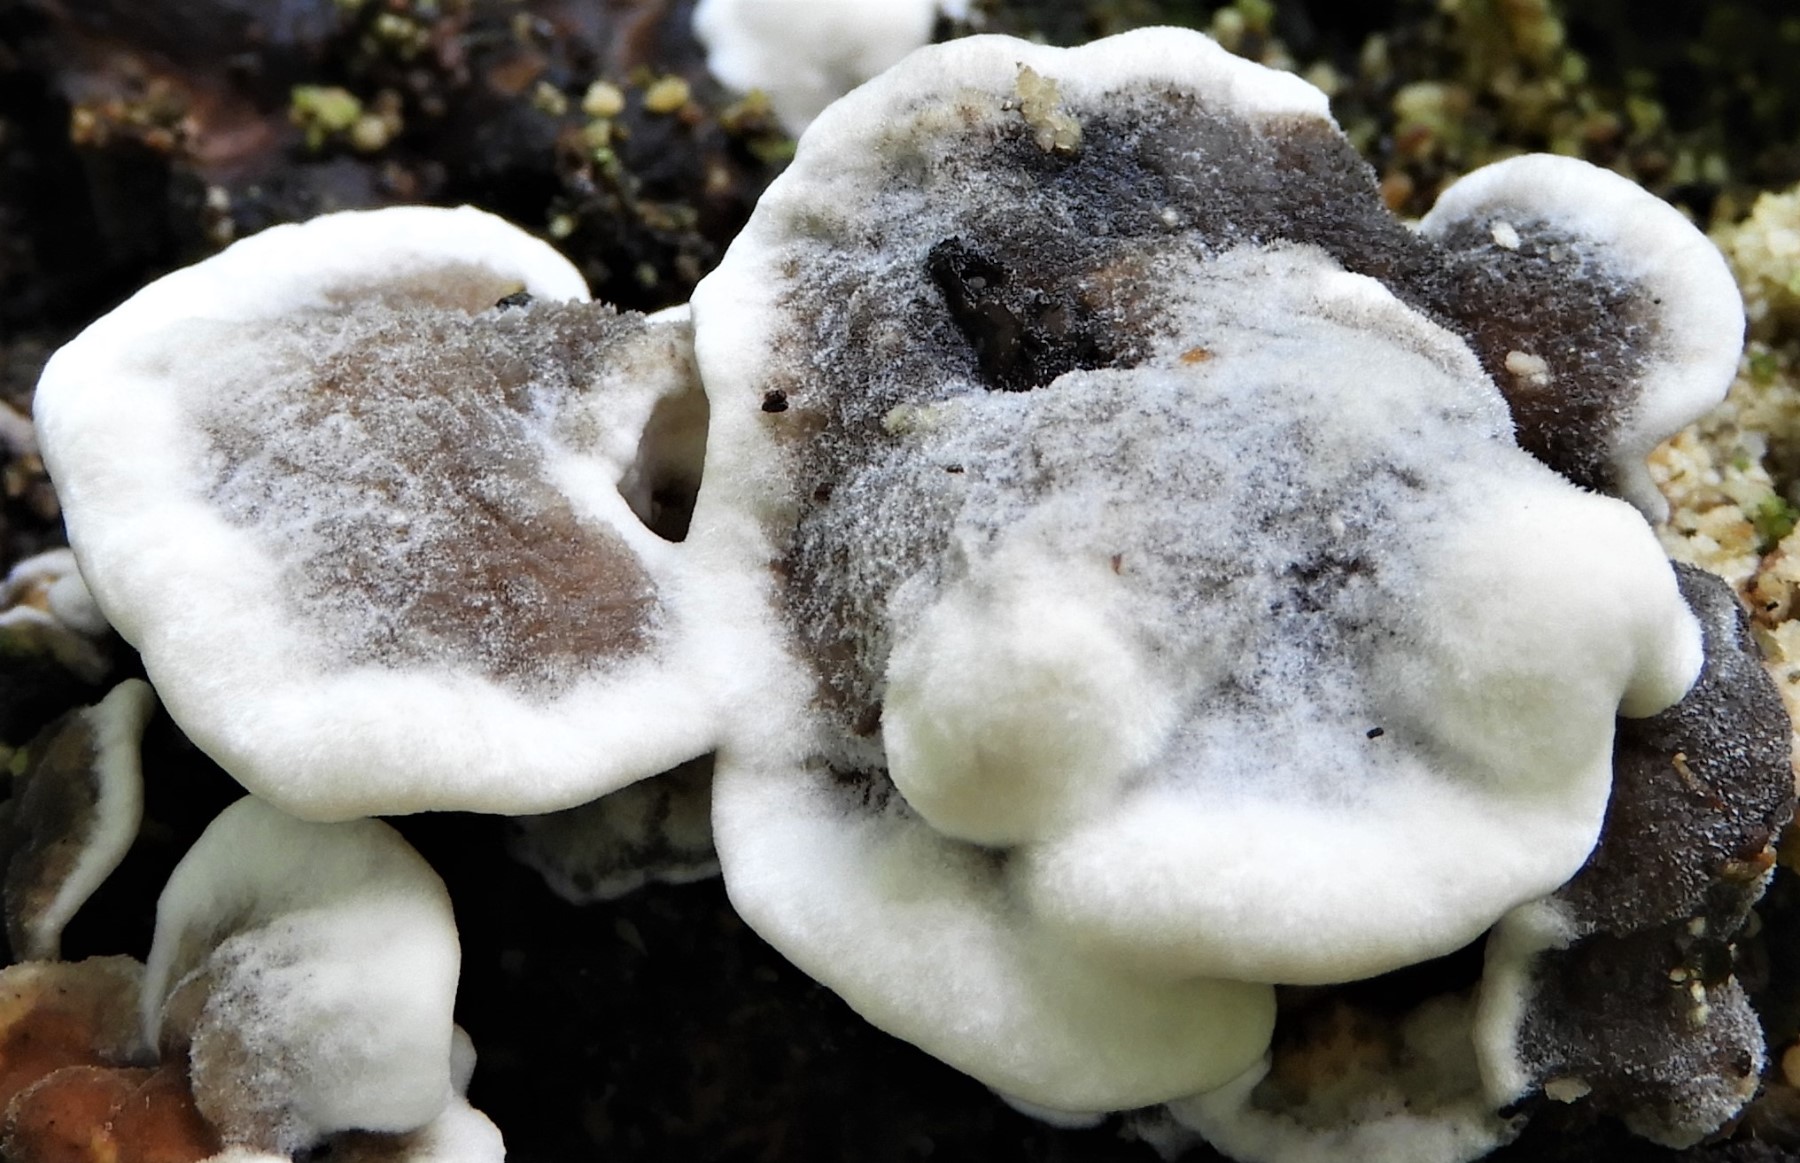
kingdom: Fungi
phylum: Basidiomycota
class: Agaricomycetes
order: Polyporales
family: Phanerochaetaceae
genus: Bjerkandera
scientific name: Bjerkandera adusta
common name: sveden sodporesvamp
